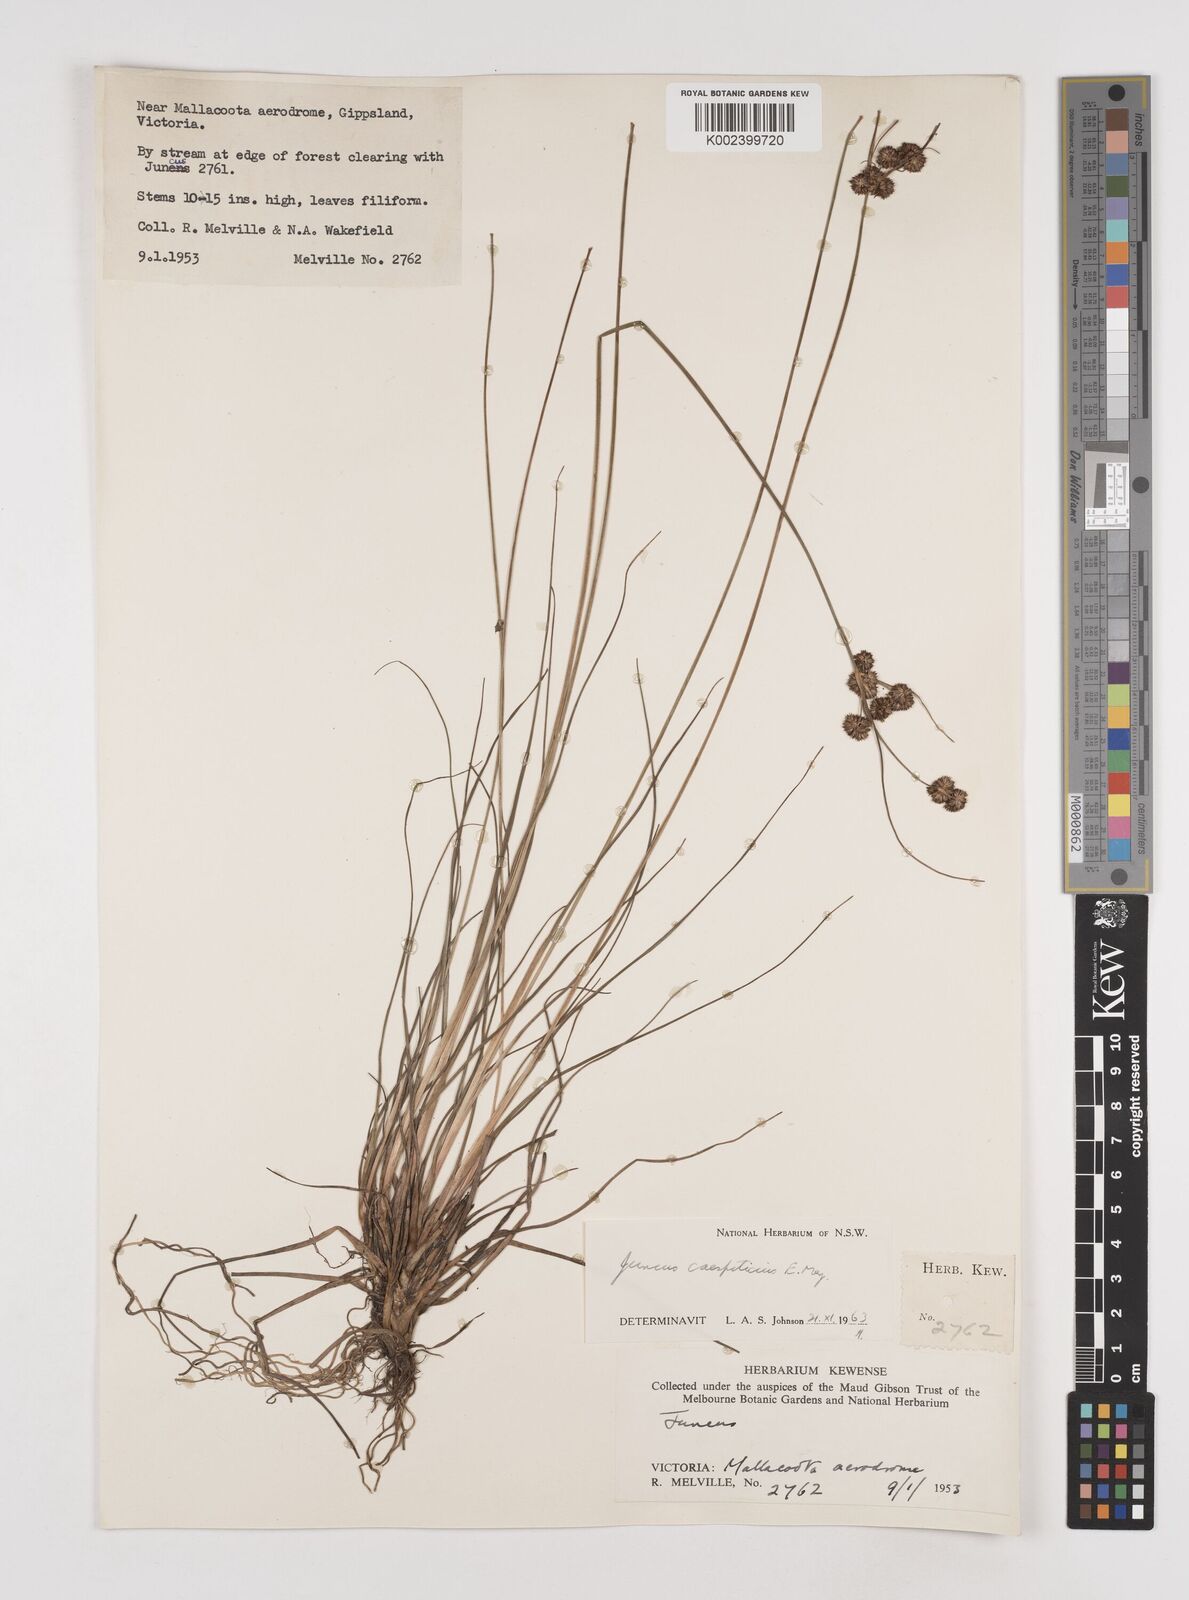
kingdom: Plantae
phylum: Tracheophyta
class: Liliopsida
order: Poales
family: Juncaceae
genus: Juncus
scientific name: Juncus caespiticius
